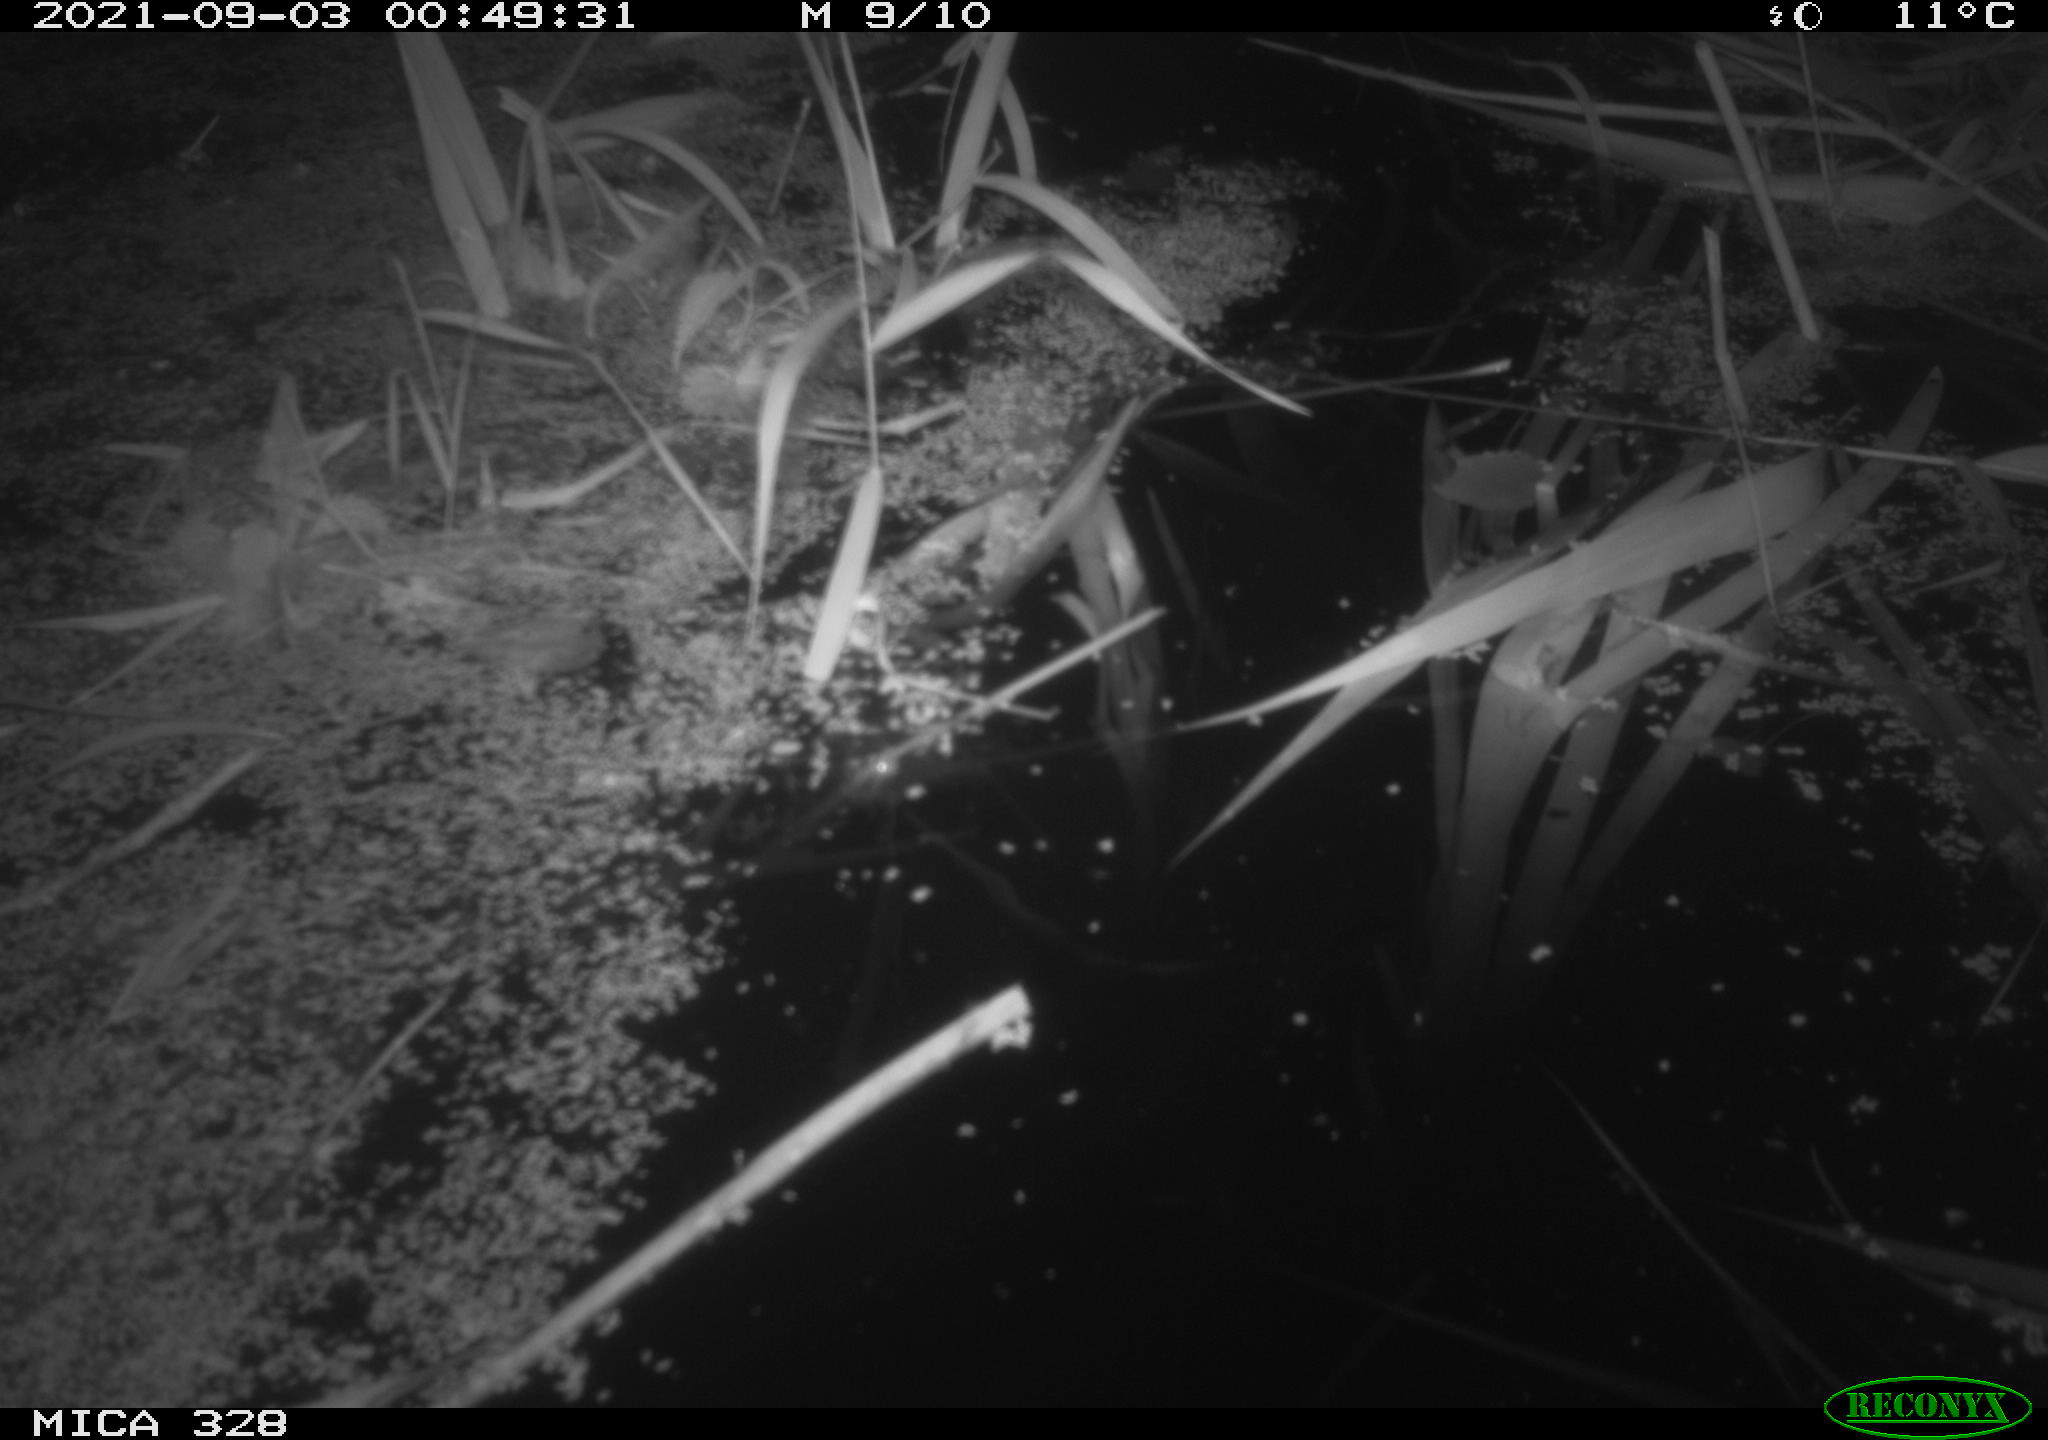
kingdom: Animalia
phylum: Chordata
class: Mammalia
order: Rodentia
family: Cricetidae
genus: Ondatra
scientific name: Ondatra zibethicus
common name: Muskrat
